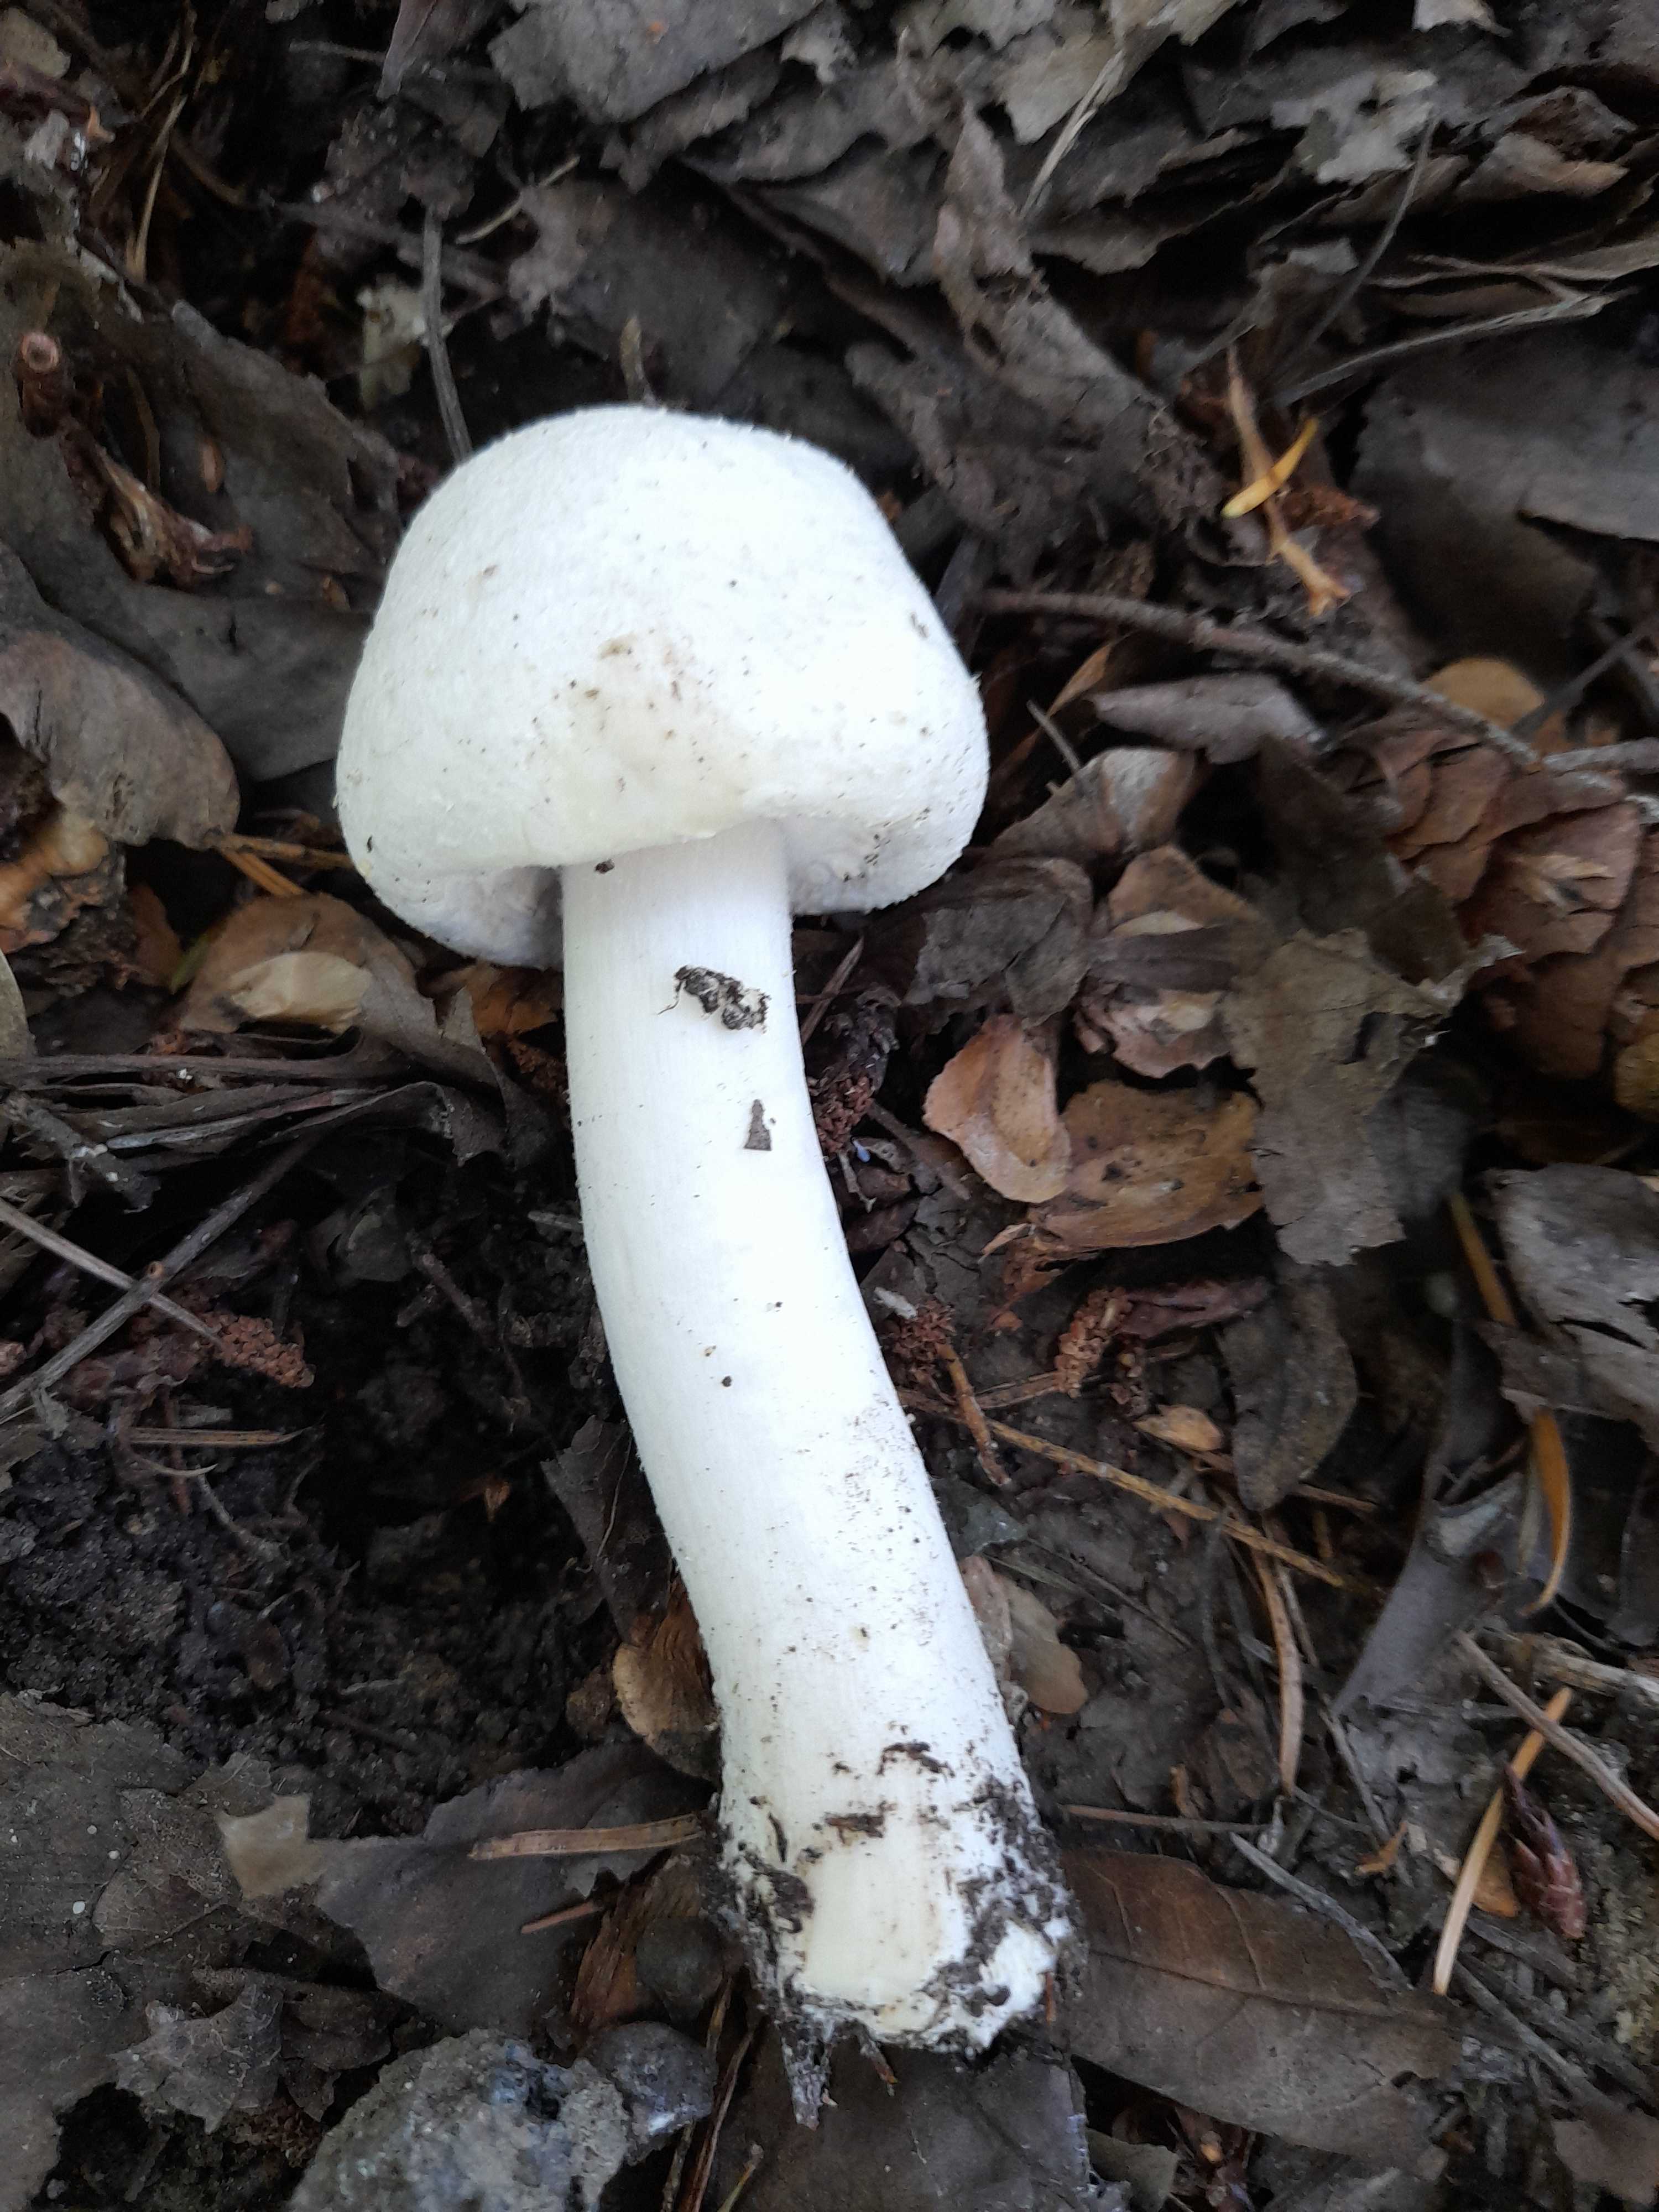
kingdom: Fungi
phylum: Basidiomycota
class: Agaricomycetes
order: Agaricales
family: Agaricaceae
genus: Agaricus
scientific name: Agaricus xanthodermus
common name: karbol-champignon
